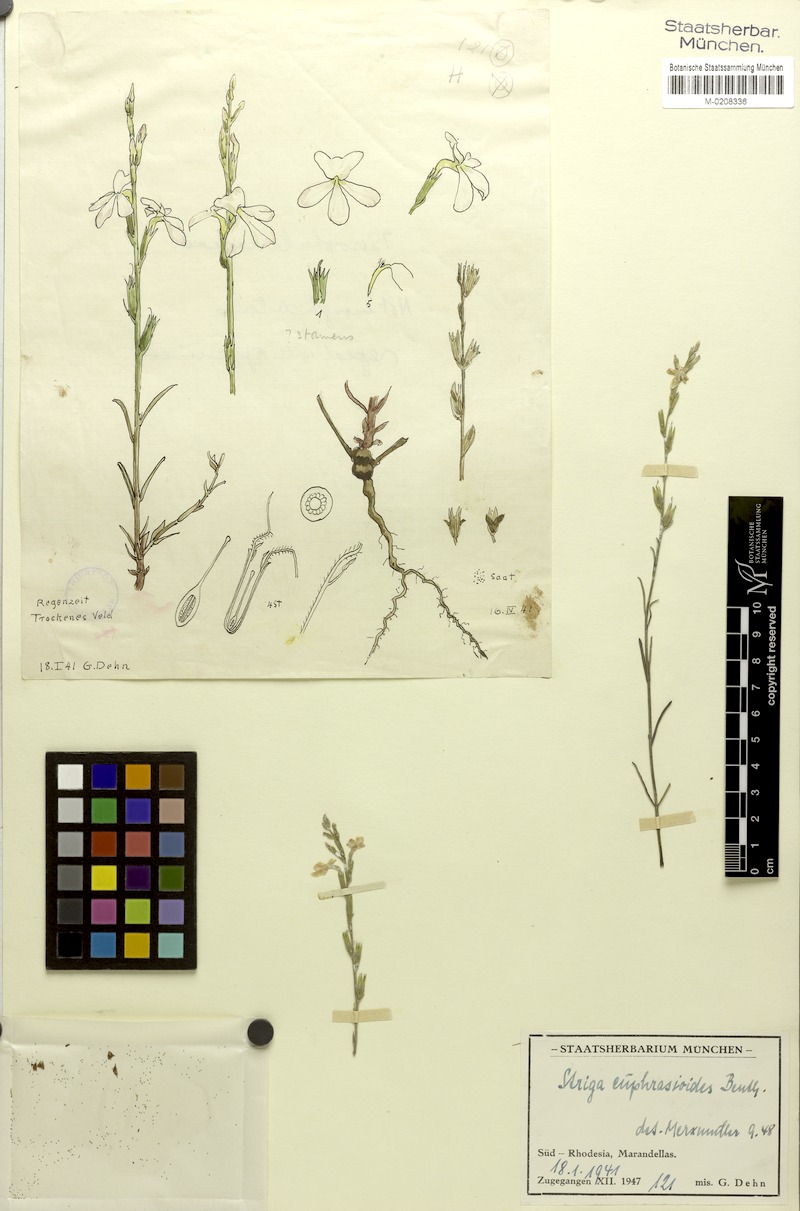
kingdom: Plantae
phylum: Tracheophyta
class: Magnoliopsida
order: Lamiales
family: Orobanchaceae
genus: Striga
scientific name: Striga angustifolia
